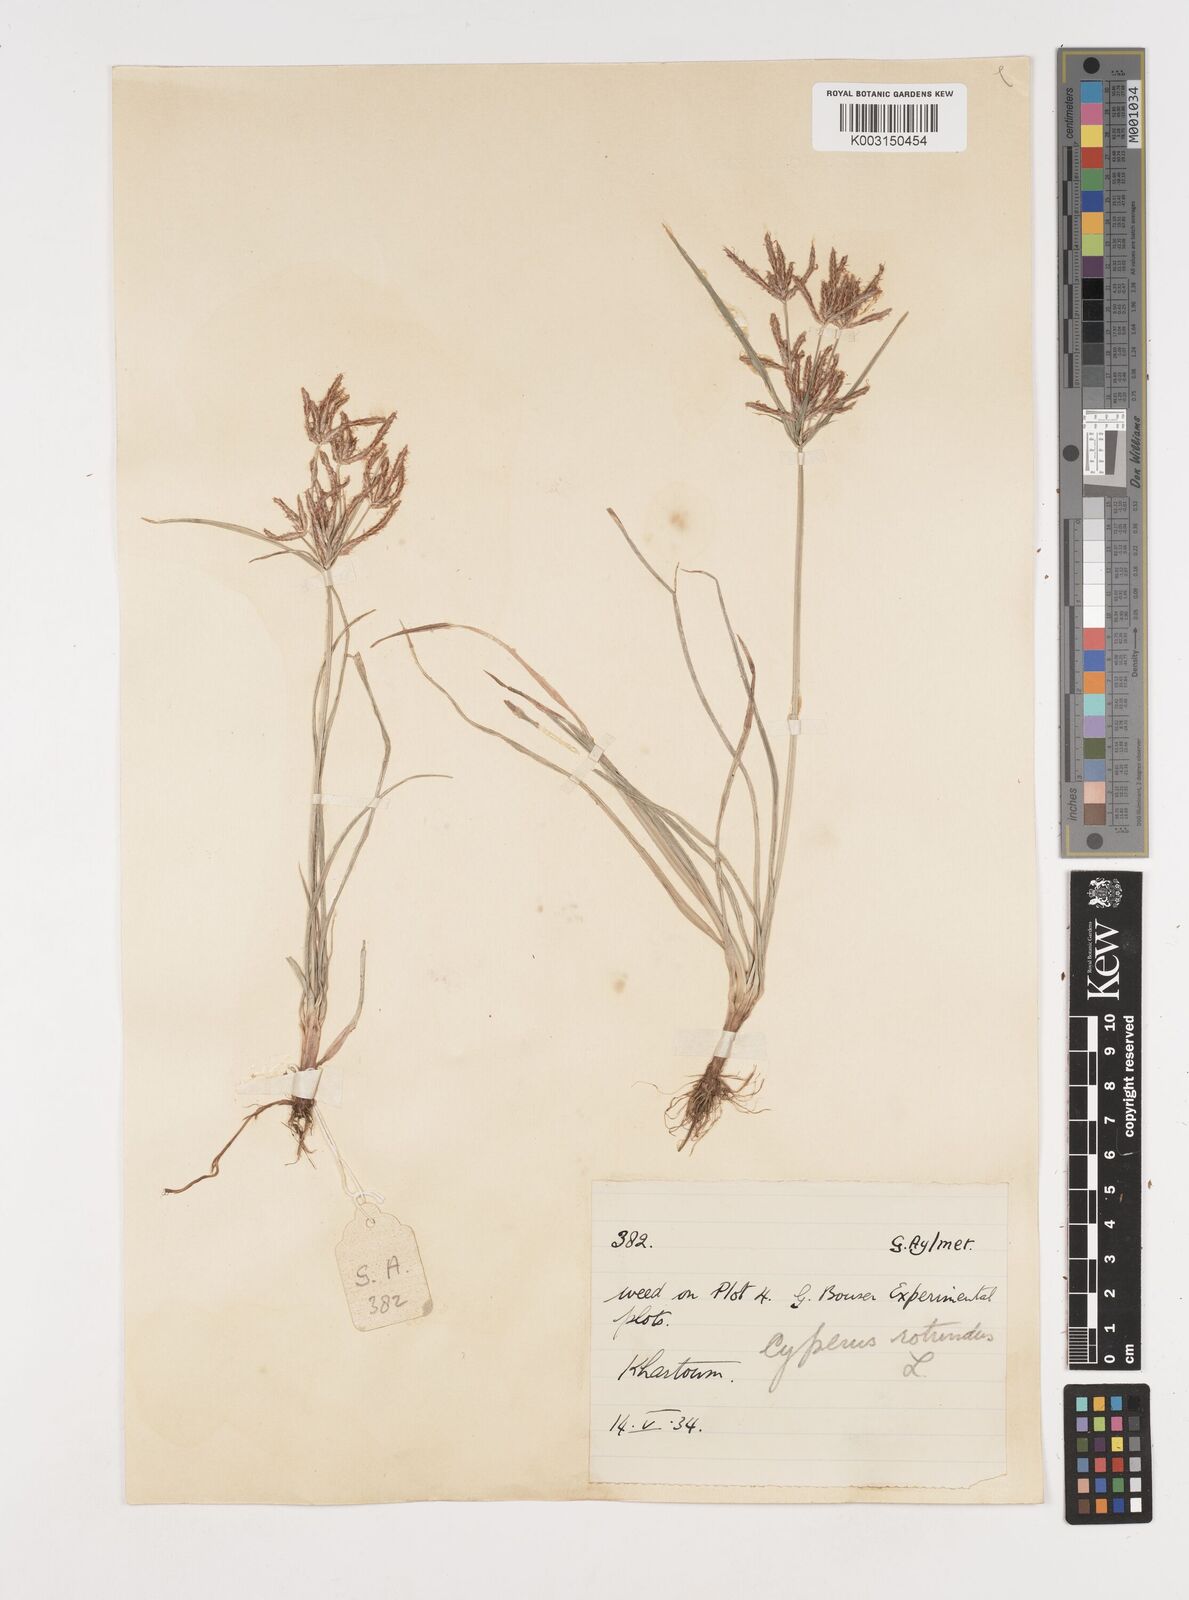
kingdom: Plantae
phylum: Tracheophyta
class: Liliopsida
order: Poales
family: Cyperaceae
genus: Cyperus
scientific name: Cyperus rotundus
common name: Nutgrass
